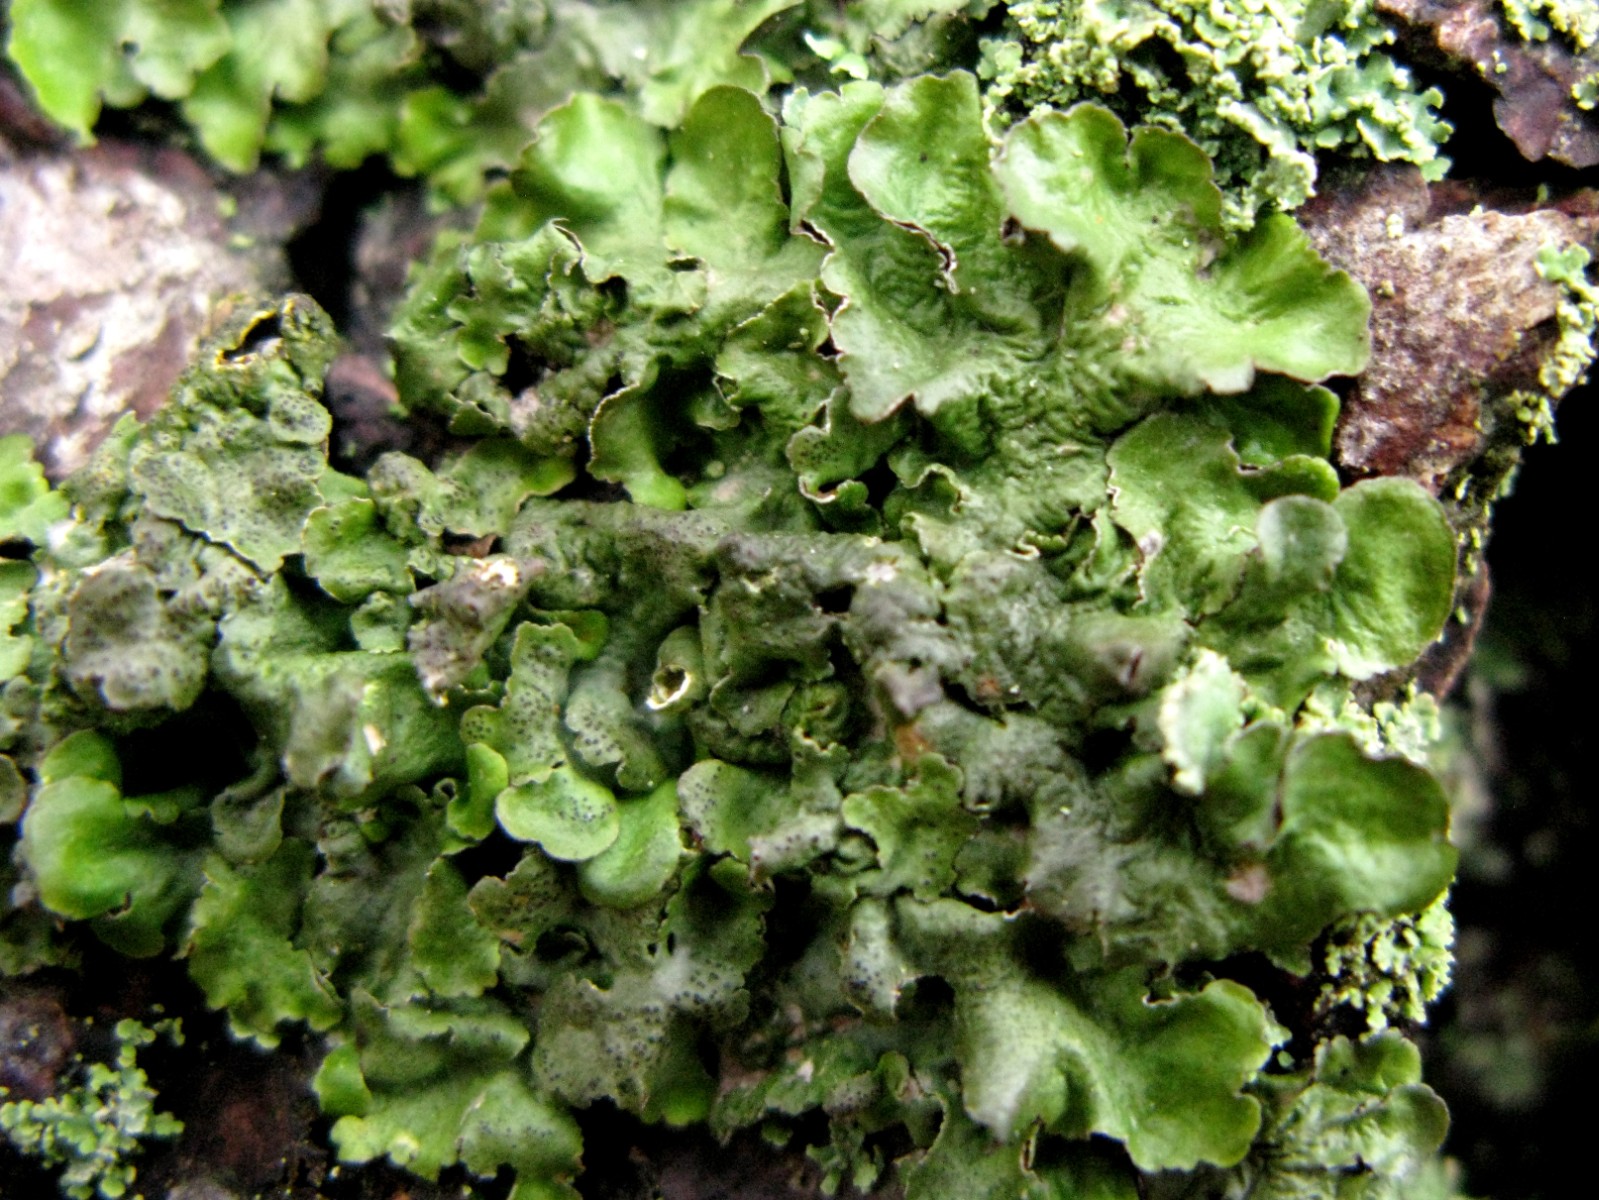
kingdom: Fungi
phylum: Ascomycota
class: Lecanoromycetes
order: Lecanorales
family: Parmeliaceae
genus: Pleurosticta
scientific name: Pleurosticta acetabulum
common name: stor skållav
